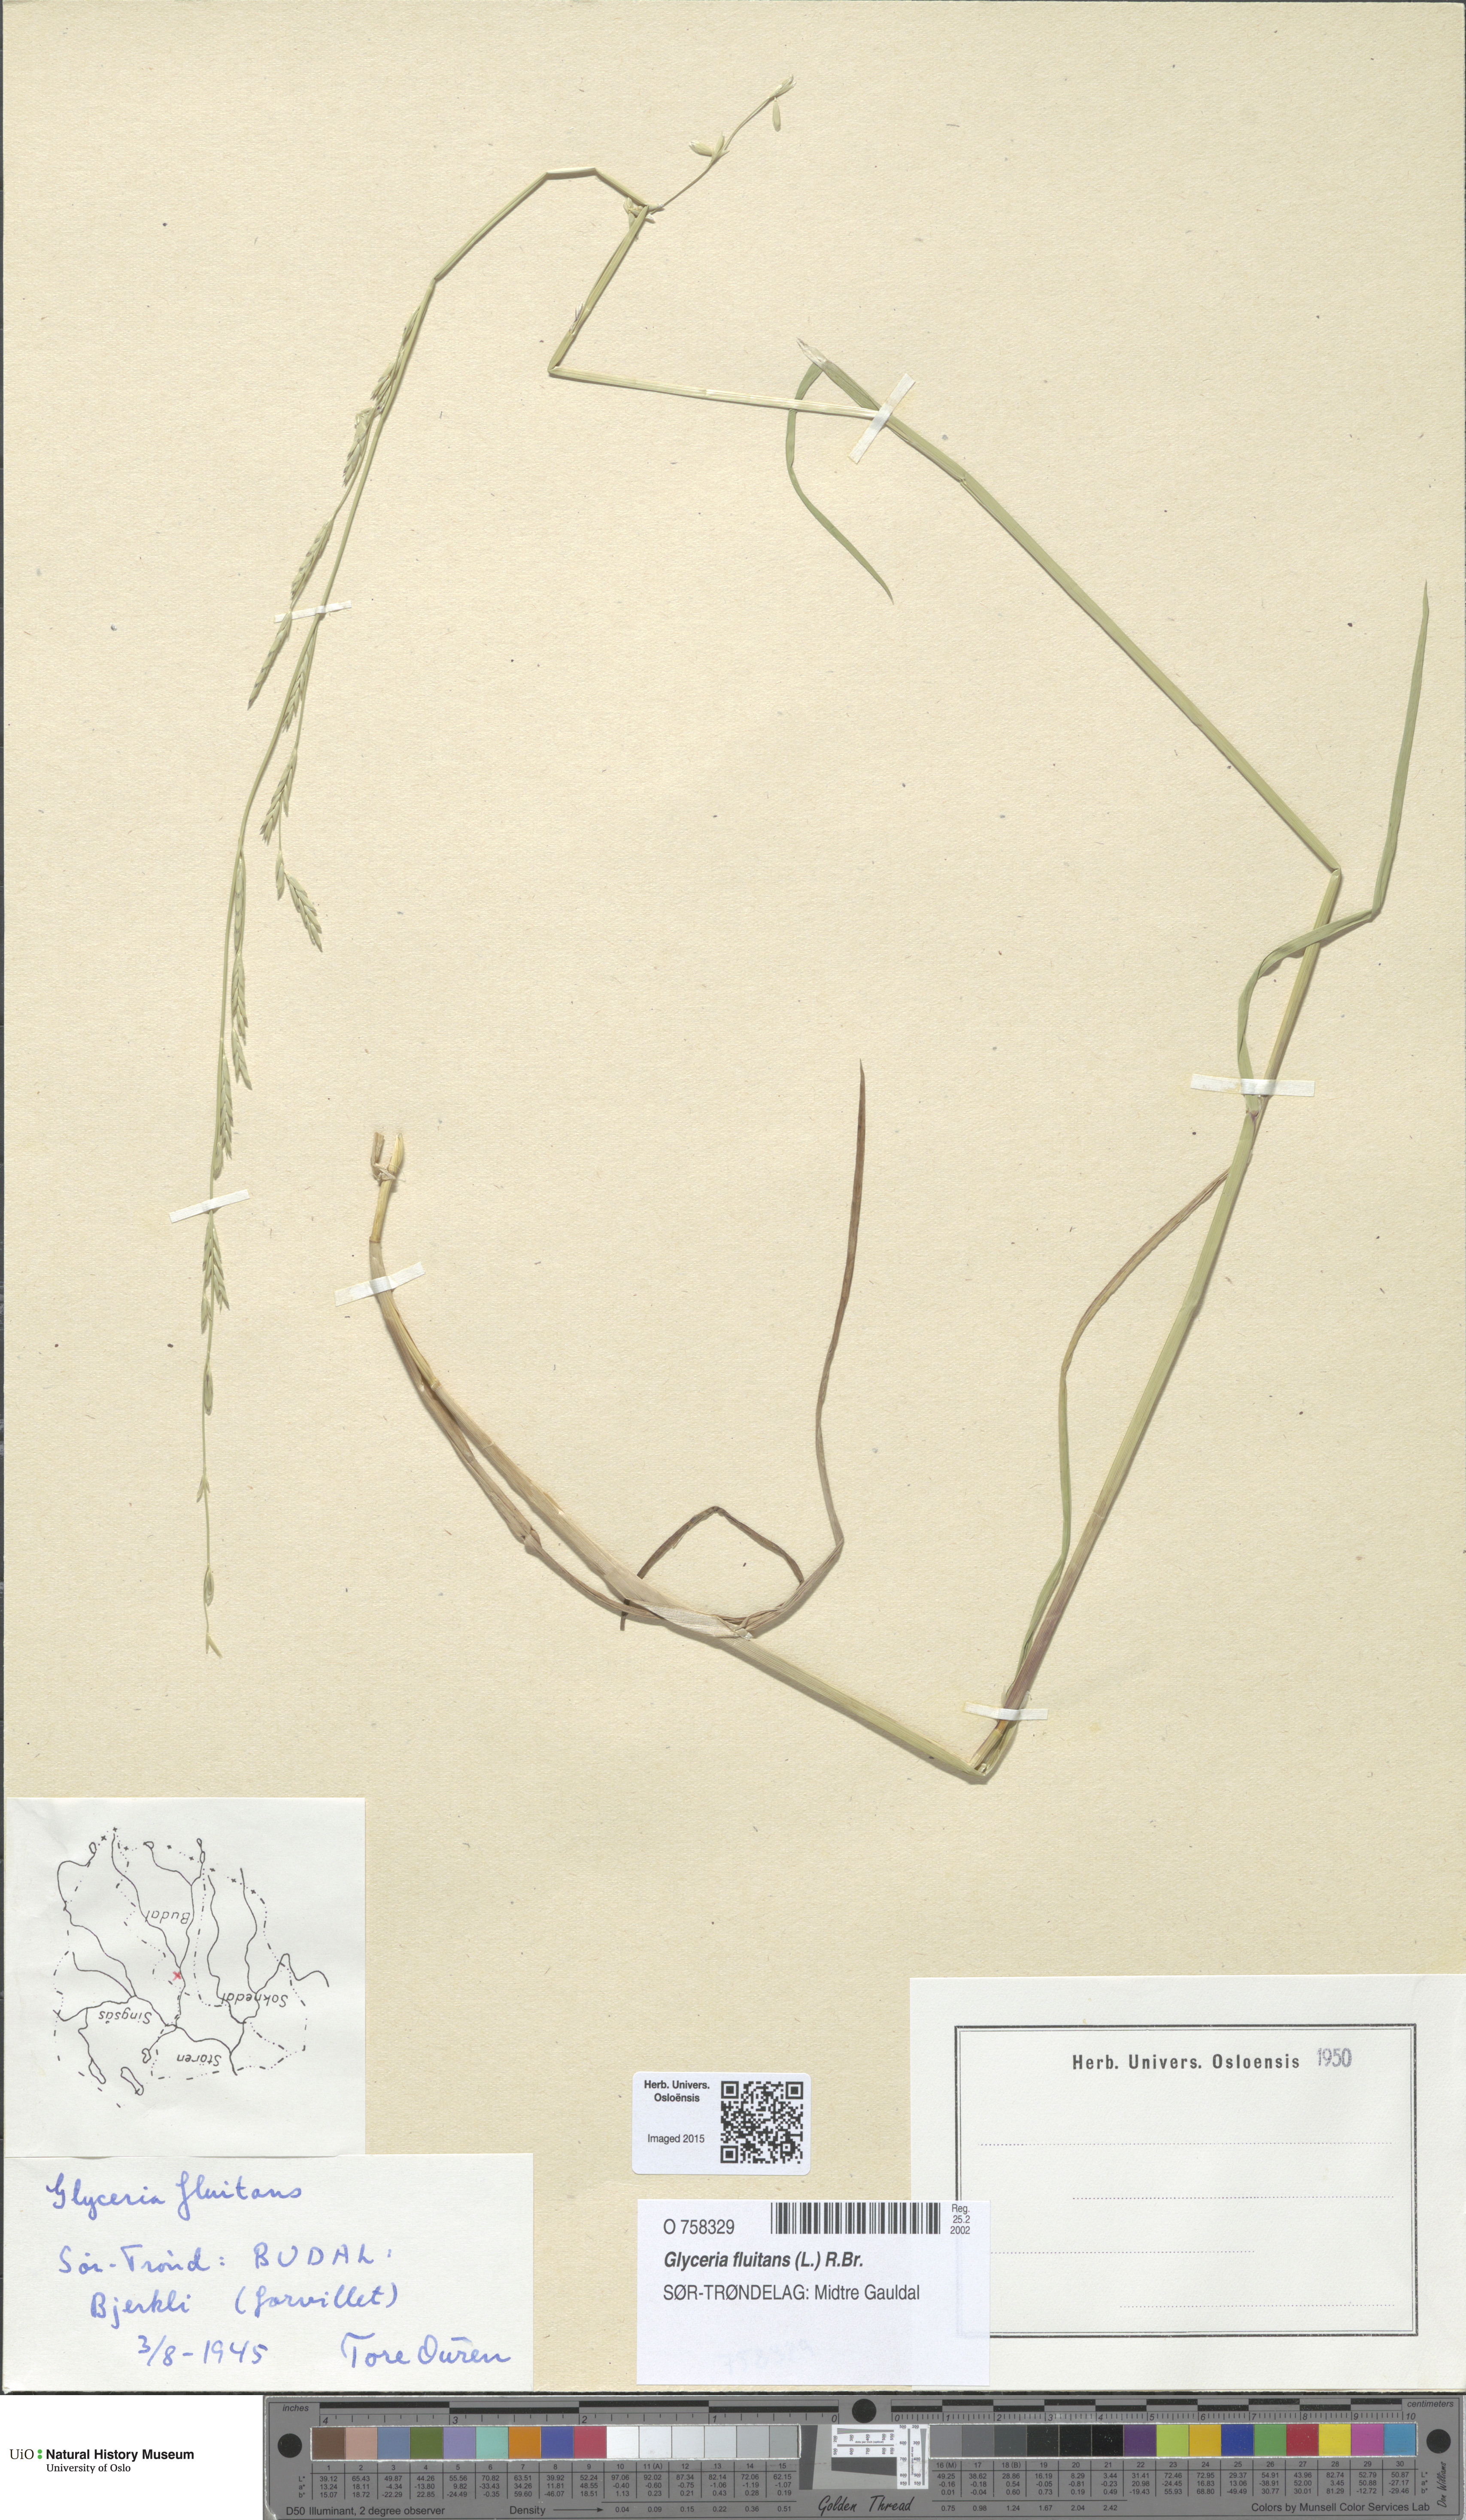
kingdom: Plantae
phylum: Tracheophyta
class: Liliopsida
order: Poales
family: Poaceae
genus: Glyceria
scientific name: Glyceria fluitans
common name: Floating sweet-grass
